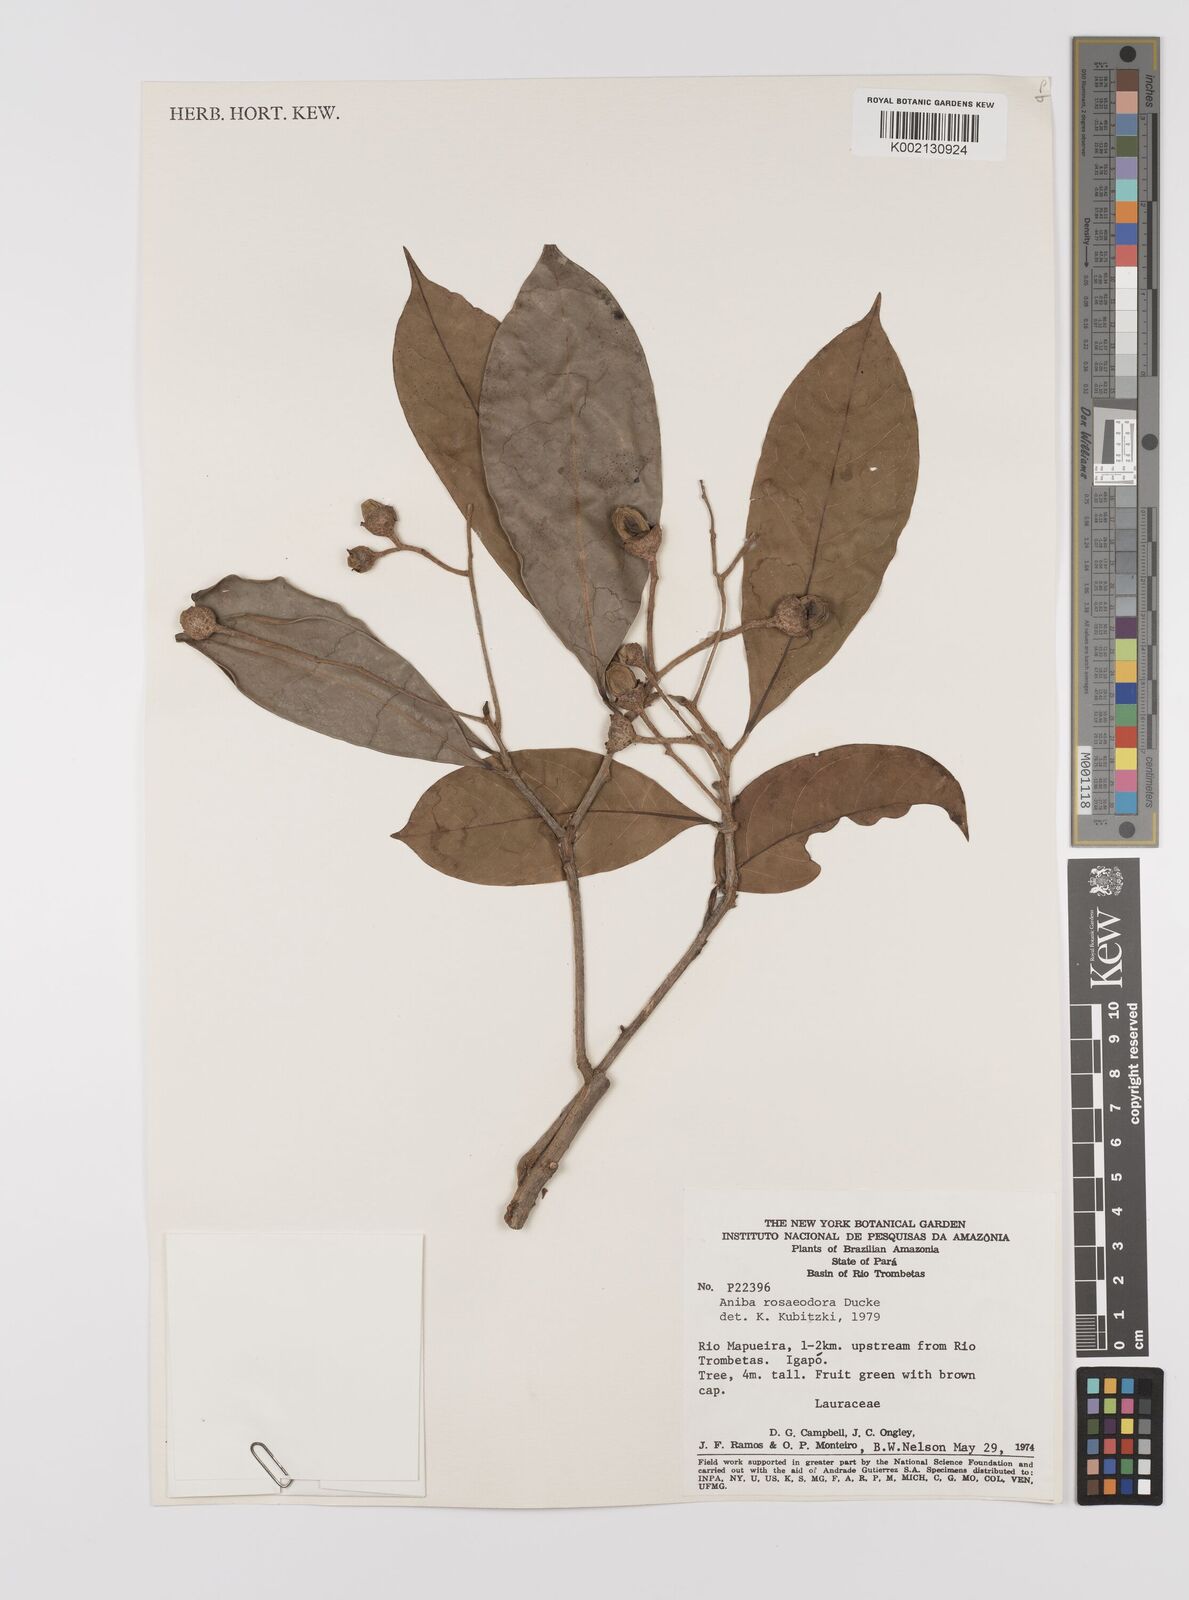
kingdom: Plantae
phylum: Tracheophyta
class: Magnoliopsida
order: Laurales
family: Lauraceae
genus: Aniba
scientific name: Aniba rosodora
